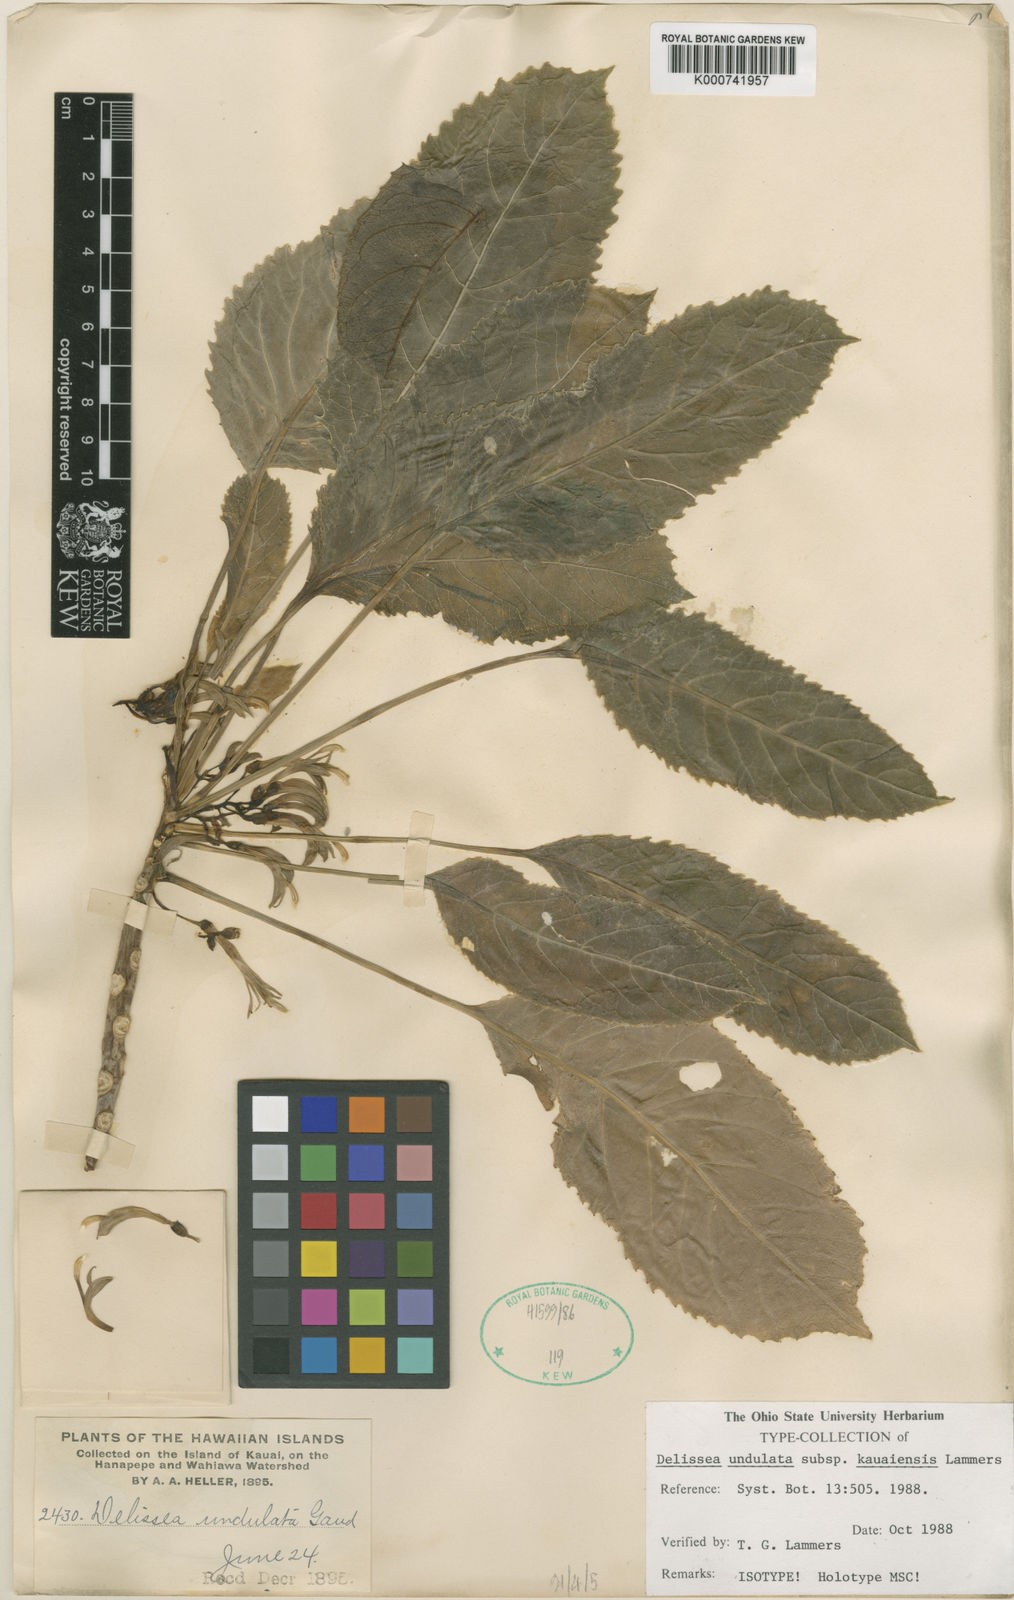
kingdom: Plantae
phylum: Tracheophyta
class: Magnoliopsida
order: Asterales
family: Campanulaceae
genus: Delissea
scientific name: Delissea undulata
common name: Undulata delissea
